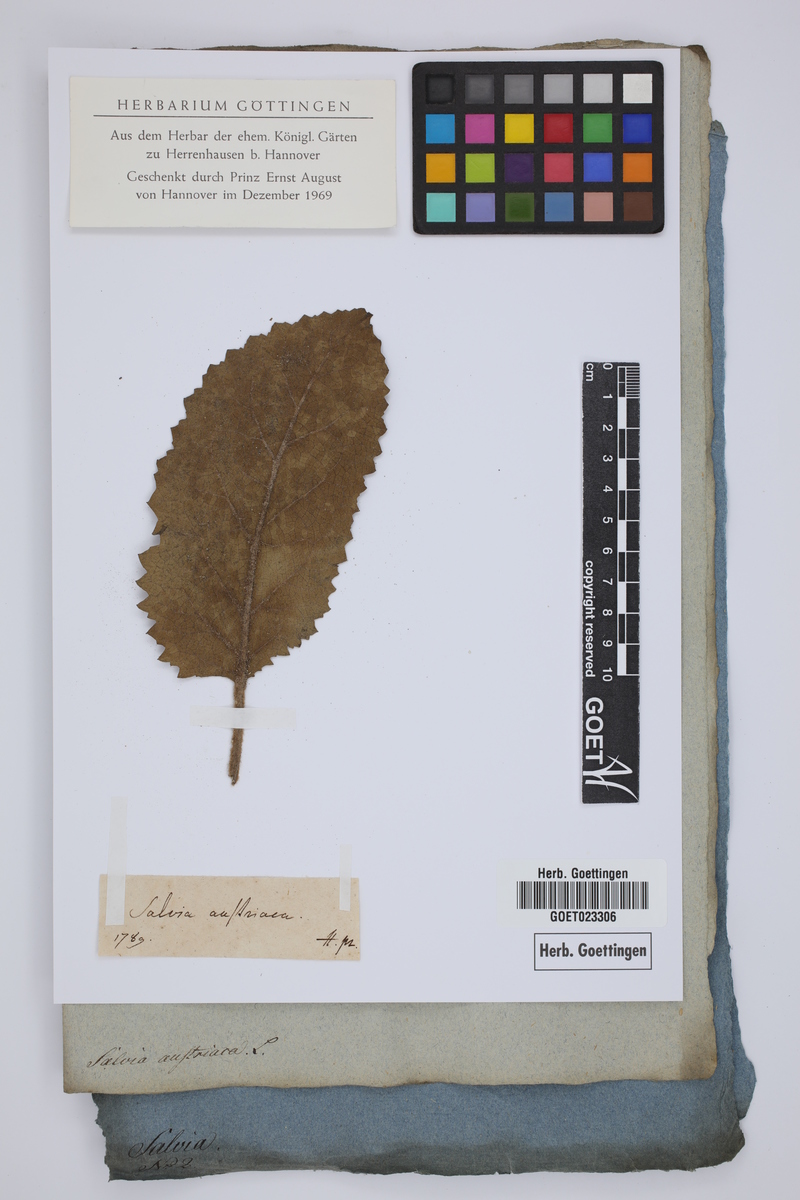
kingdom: Plantae
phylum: Tracheophyta
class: Magnoliopsida
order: Lamiales
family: Lamiaceae
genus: Salvia
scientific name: Salvia austriaca
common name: Austrian sage
